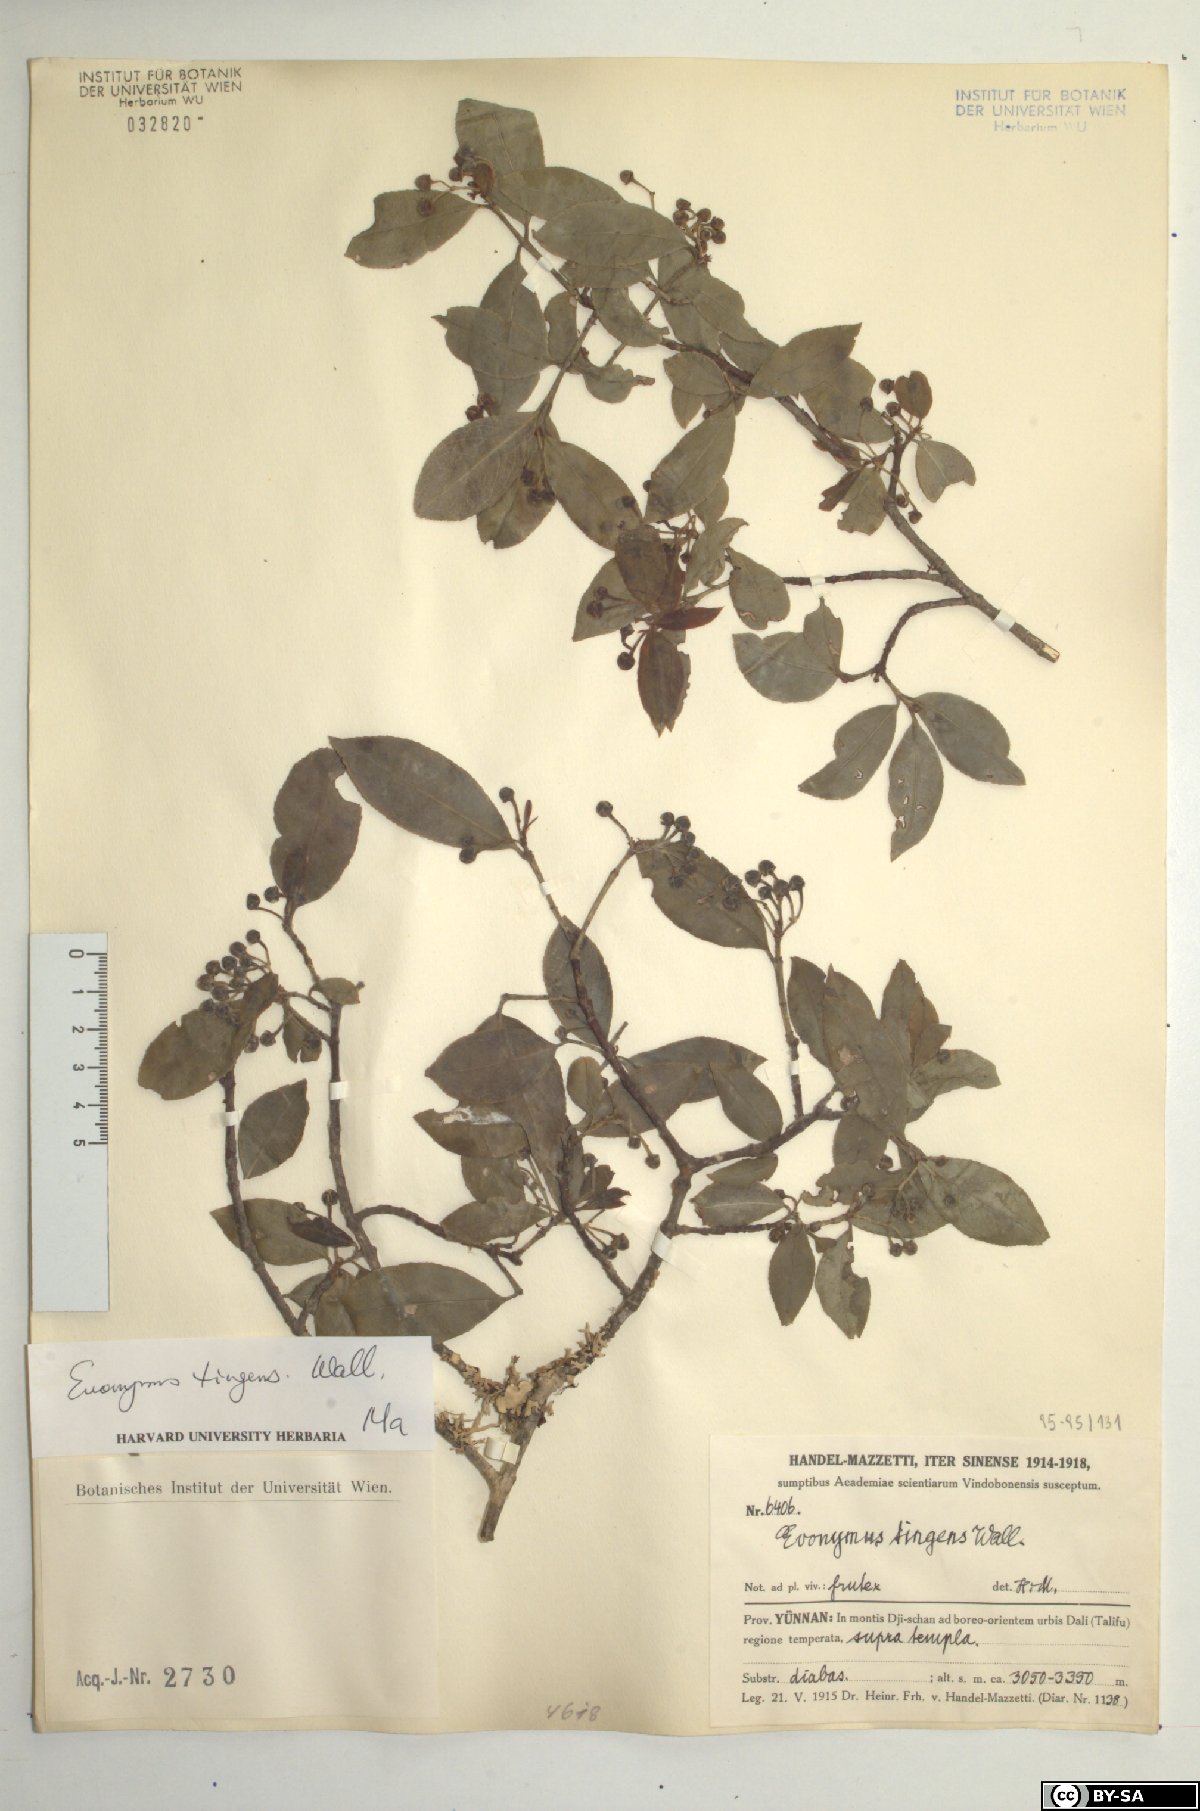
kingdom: Plantae
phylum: Tracheophyta
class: Magnoliopsida
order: Celastrales
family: Celastraceae
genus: Euonymus
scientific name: Euonymus tingens
